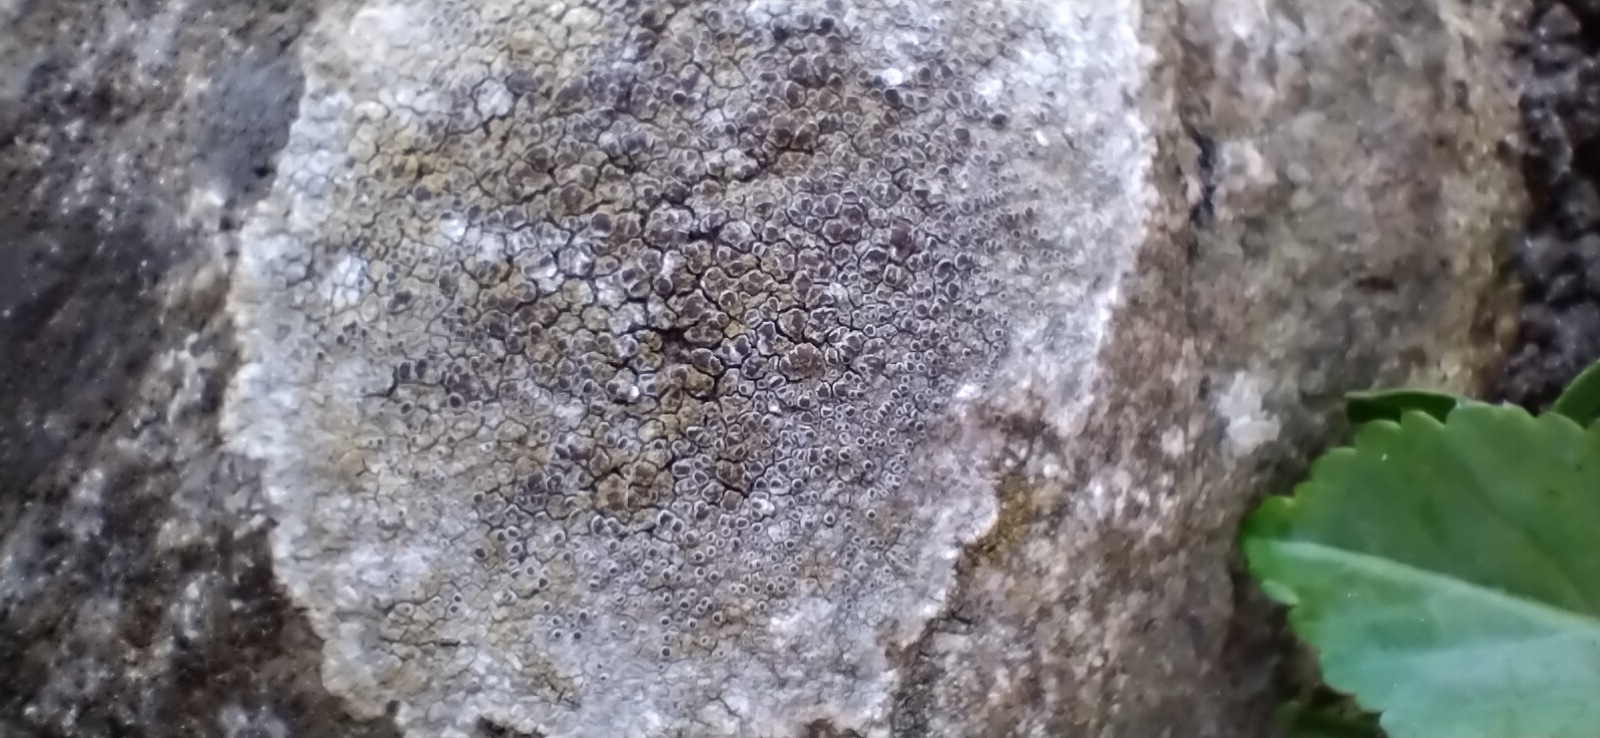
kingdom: Fungi
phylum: Ascomycota
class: Lecanoromycetes
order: Lecanorales
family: Lecanoraceae
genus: Lecanora
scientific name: Lecanora campestris
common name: mur-kantskivelav
